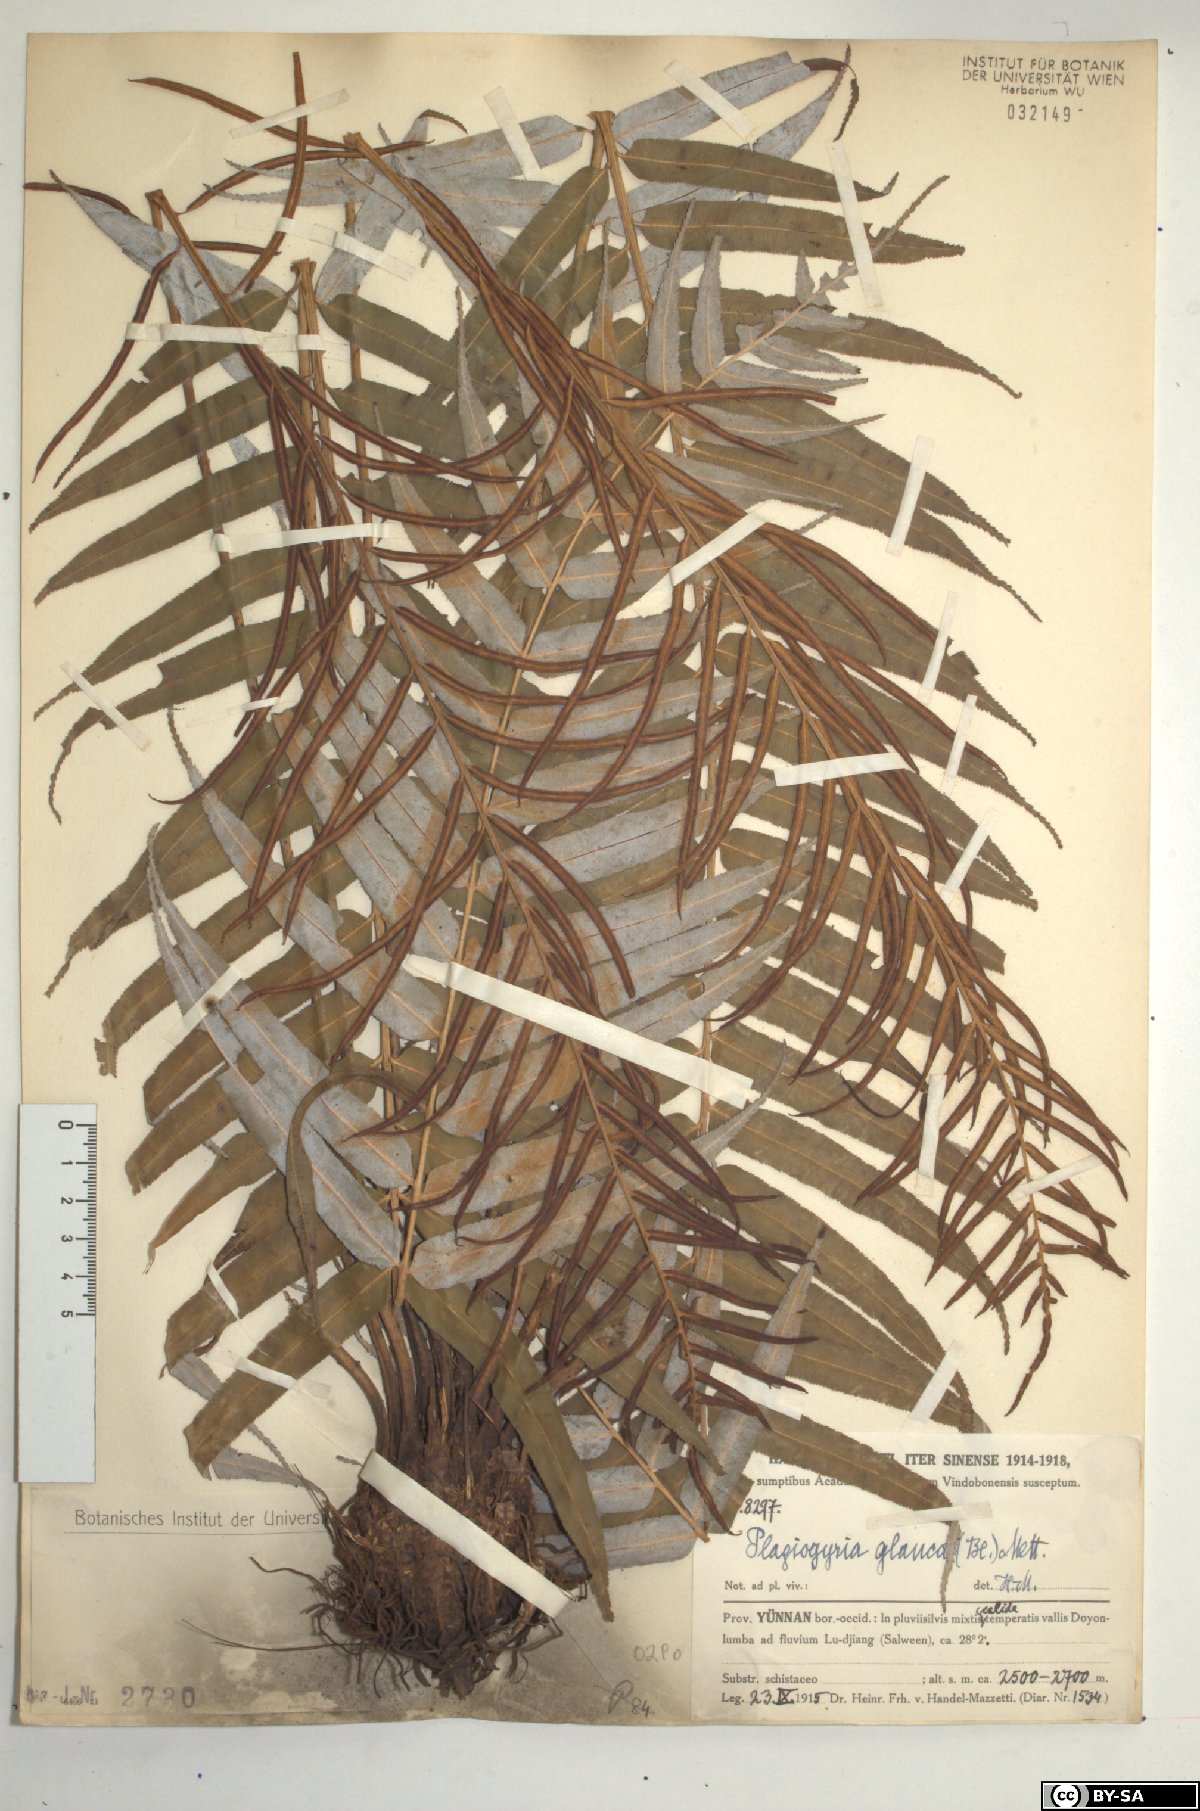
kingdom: Plantae
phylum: Tracheophyta
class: Polypodiopsida
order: Cyatheales
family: Plagiogyriaceae
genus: Plagiogyria
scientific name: Plagiogyria glauca
